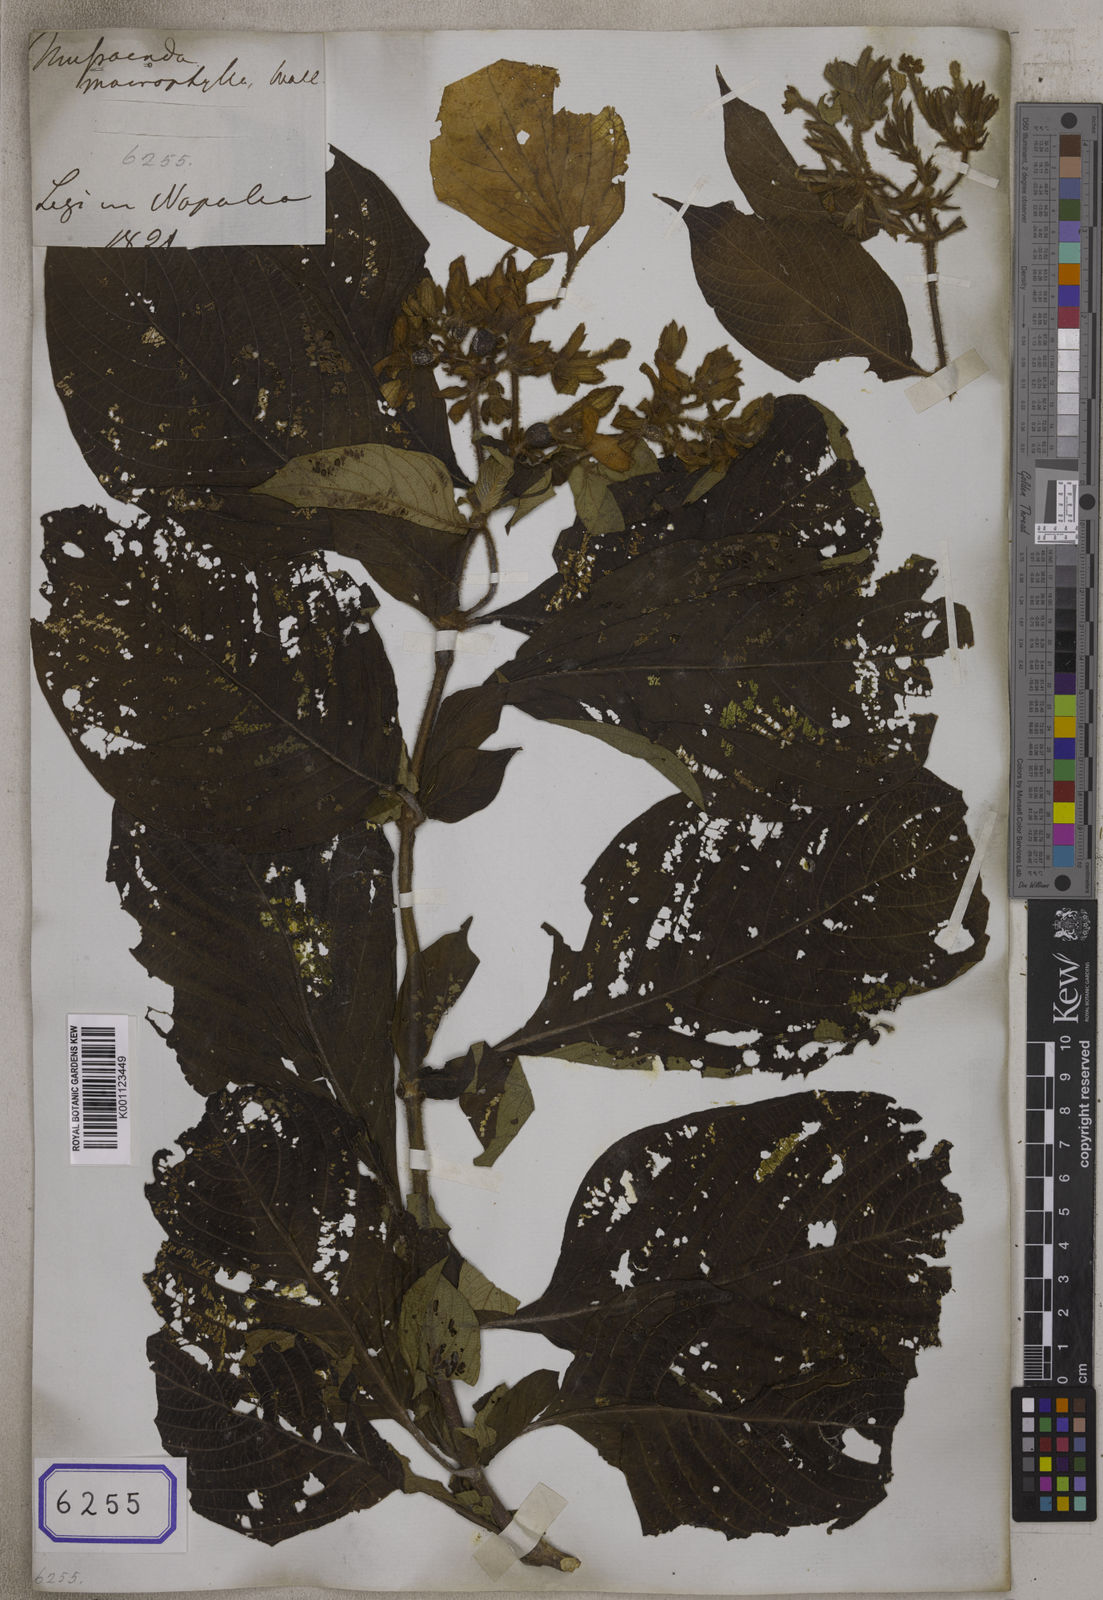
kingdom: Plantae
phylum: Tracheophyta
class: Magnoliopsida
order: Gentianales
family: Rubiaceae
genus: Mussaenda
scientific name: Mussaenda macrophylla
